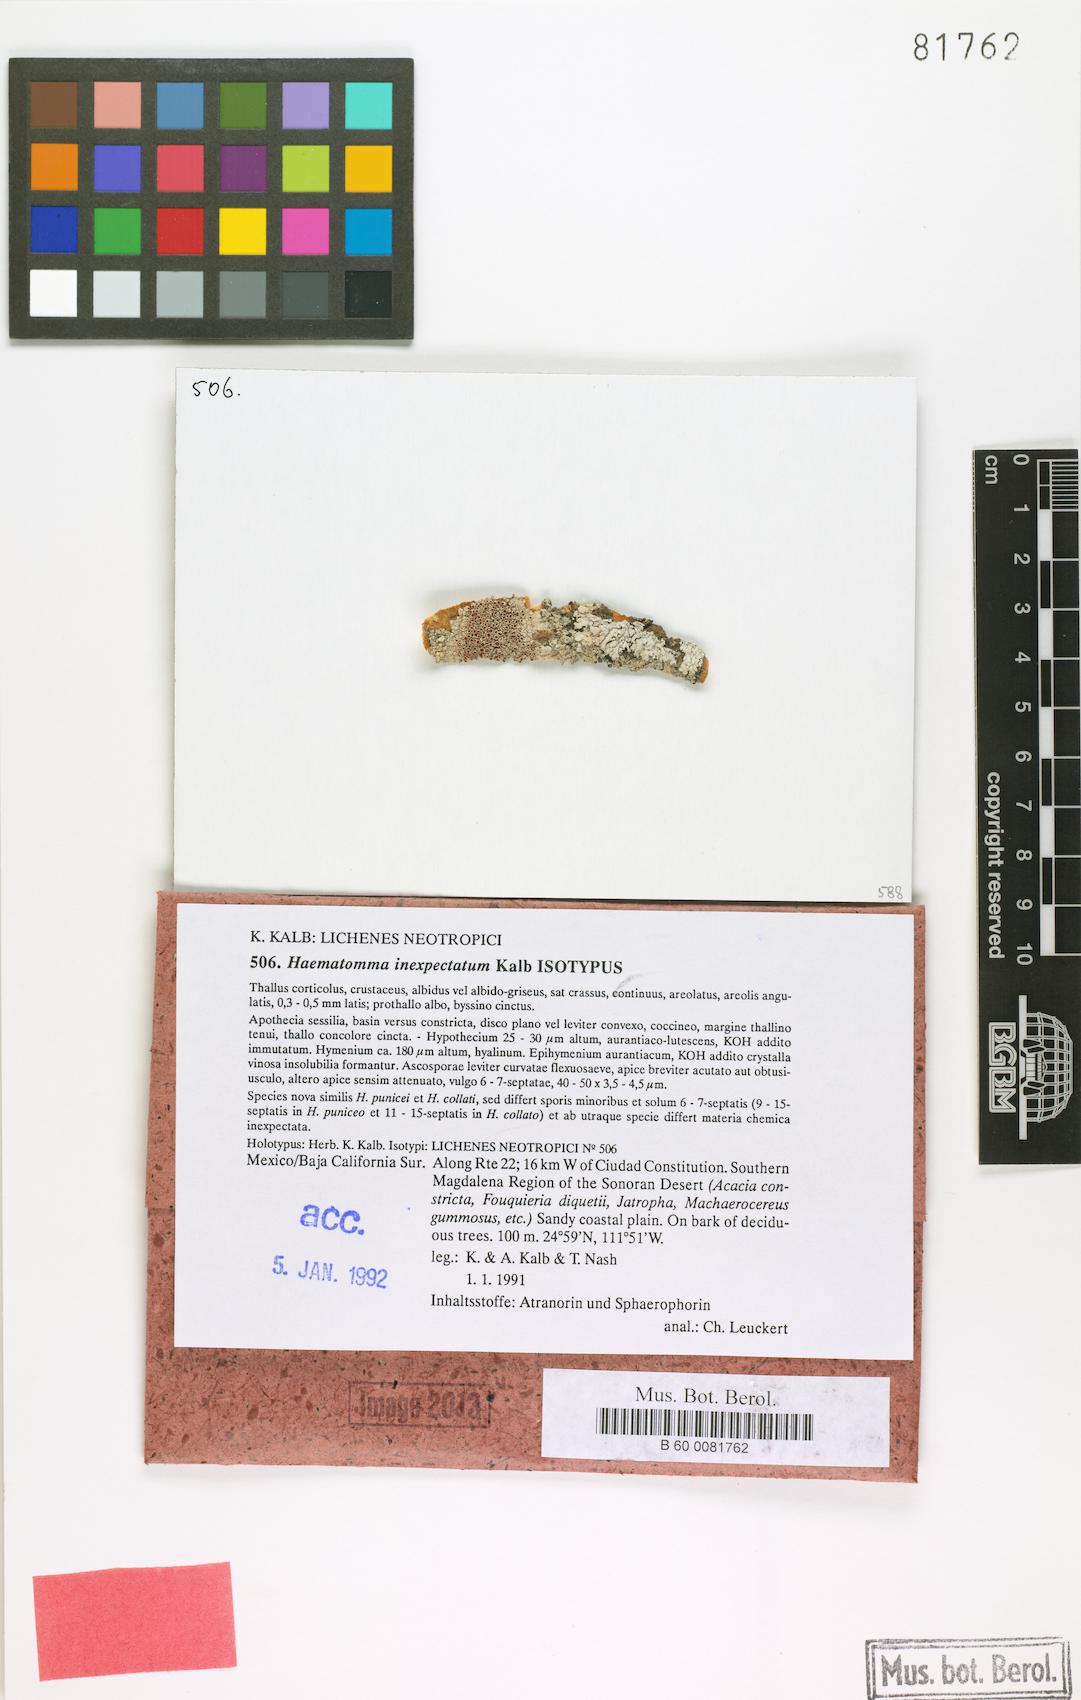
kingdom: Fungi
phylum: Ascomycota
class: Lecanoromycetes
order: Lecanorales
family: Haematommataceae
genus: Haematomma
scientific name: Haematomma inexpectatum
